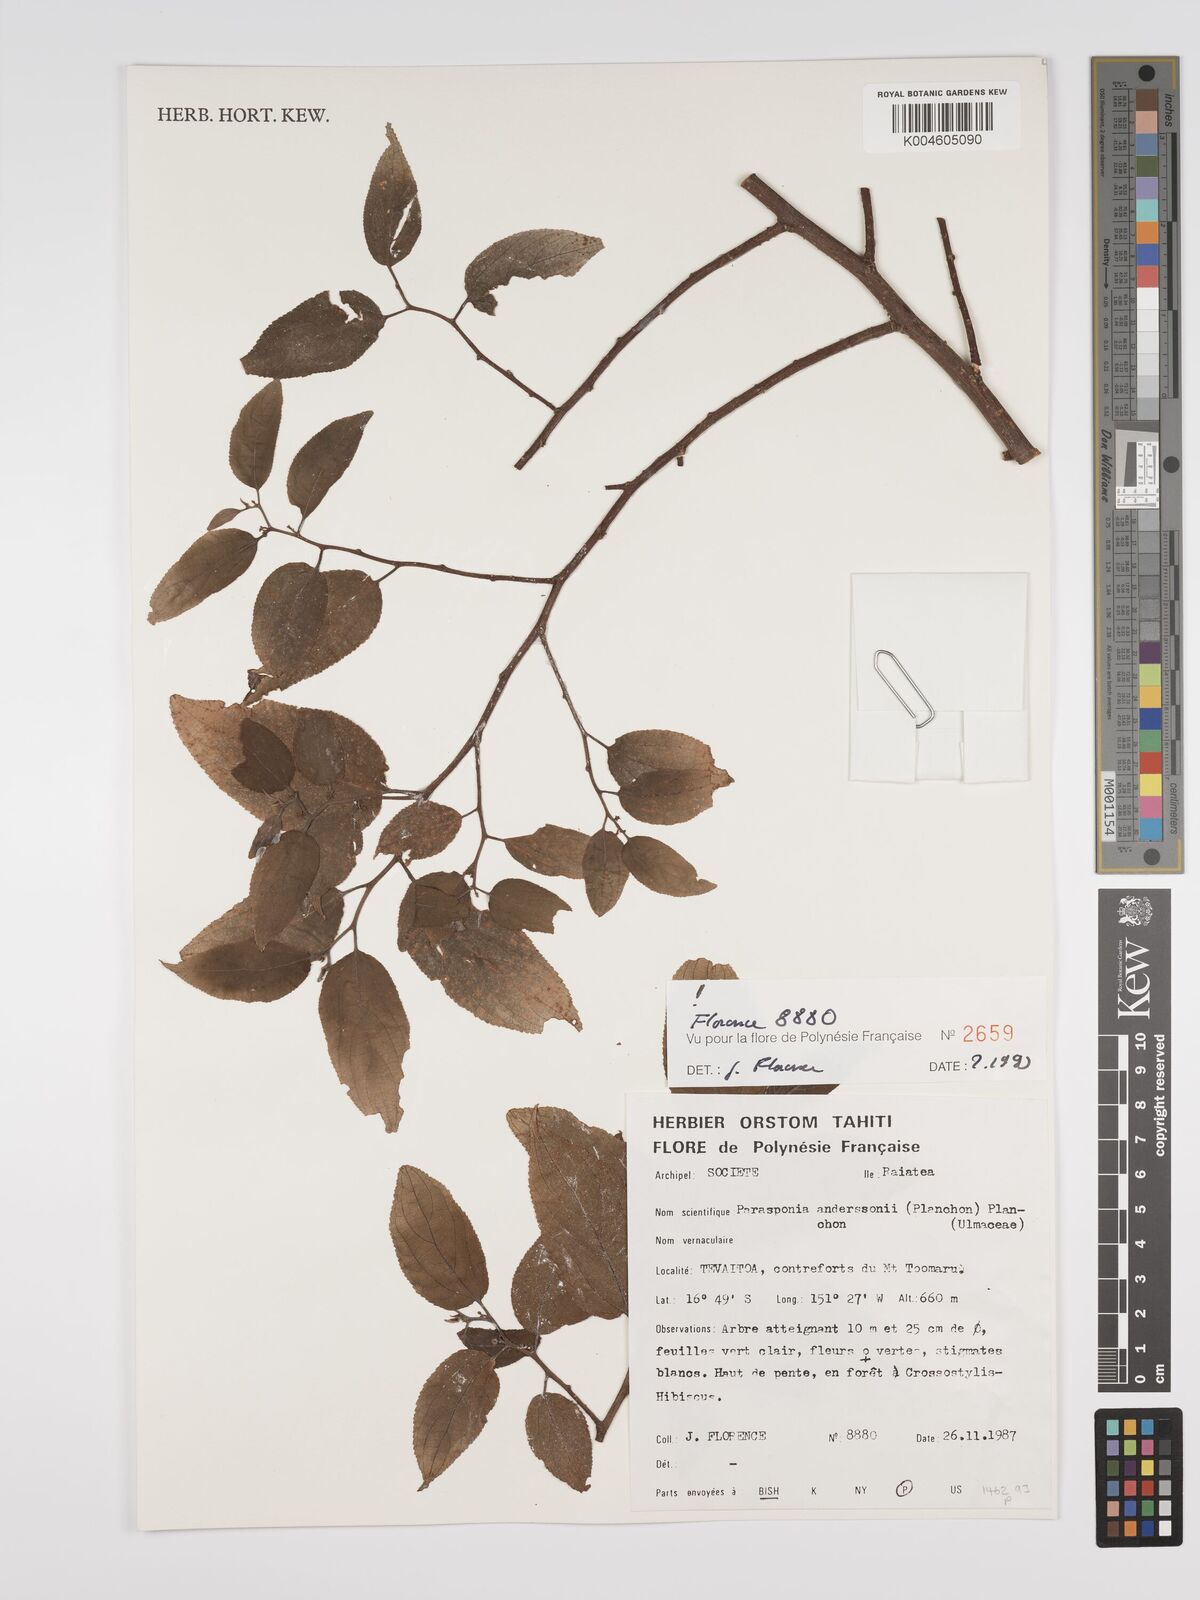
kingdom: Plantae
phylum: Tracheophyta
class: Magnoliopsida
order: Rosales
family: Cannabaceae
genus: Trema
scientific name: Trema andersonii
